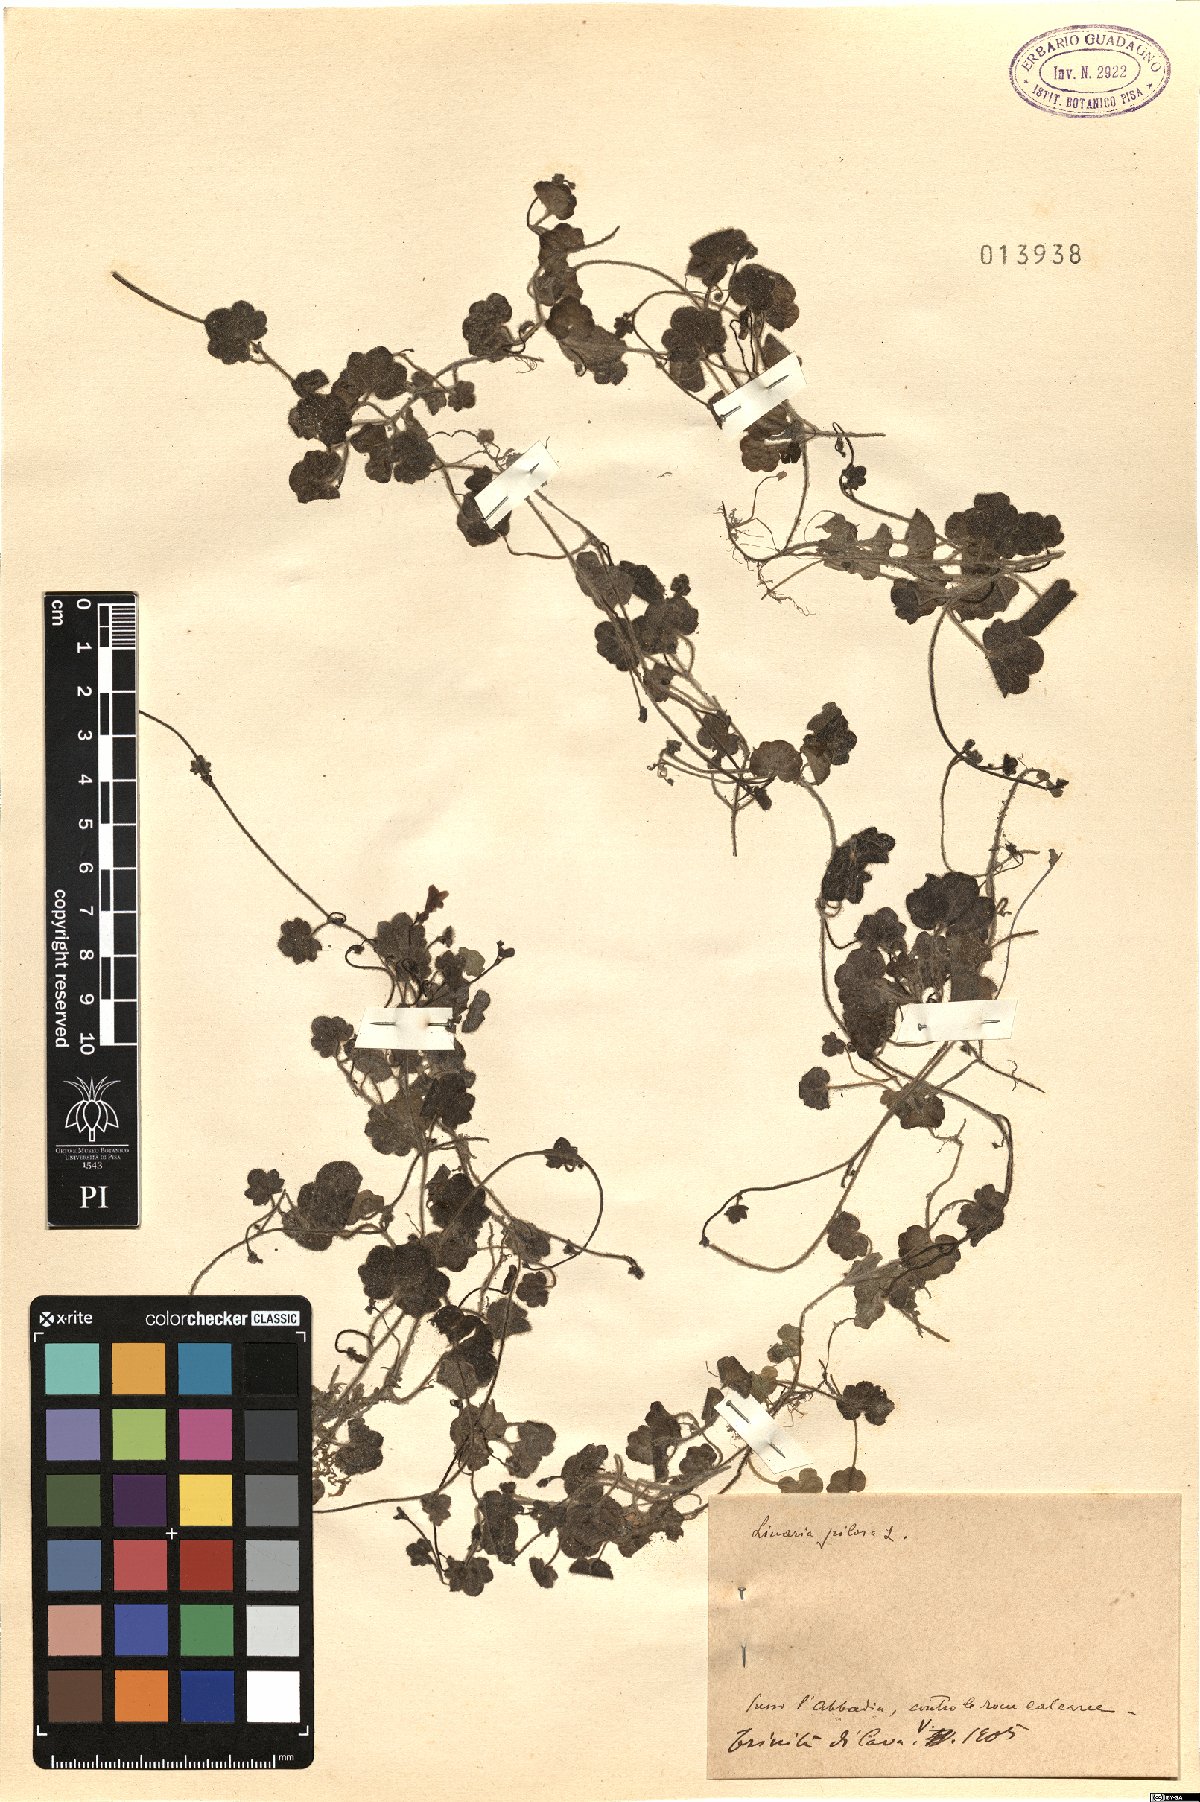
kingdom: Plantae
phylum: Tracheophyta
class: Magnoliopsida
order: Lamiales
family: Plantaginaceae
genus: Sibthorpia
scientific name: Sibthorpia europaea
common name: Cornish moneywort
